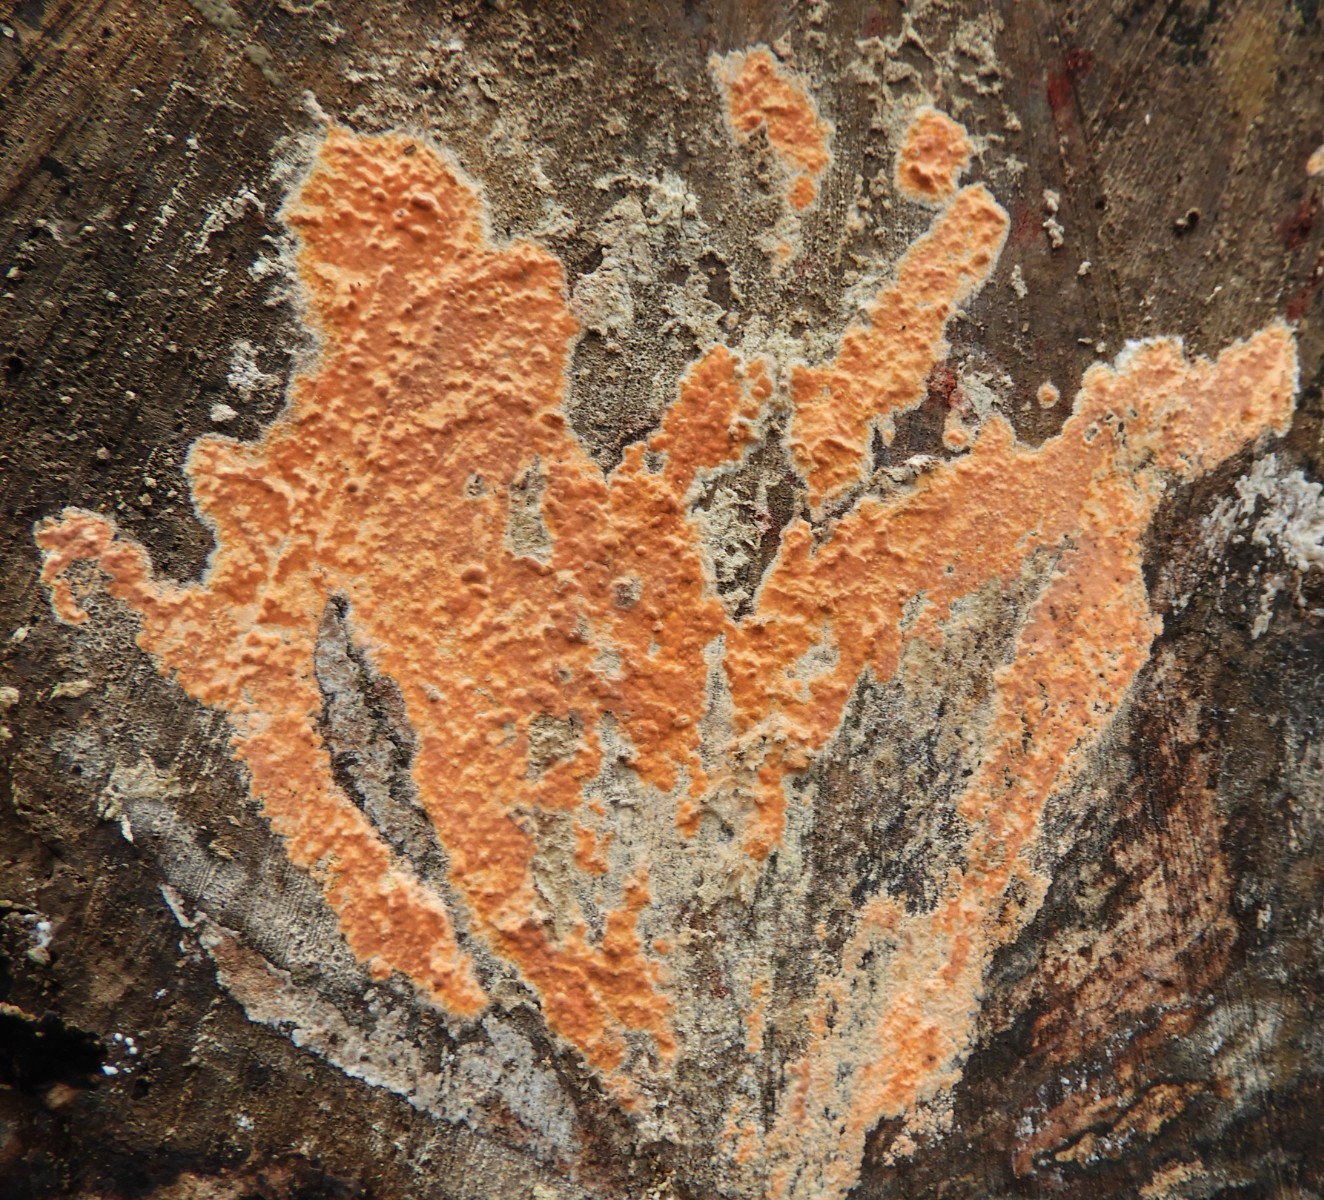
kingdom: Fungi
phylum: Basidiomycota
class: Agaricomycetes
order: Russulales
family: Peniophoraceae
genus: Peniophora
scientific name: Peniophora incarnata
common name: laksefarvet voksskind
